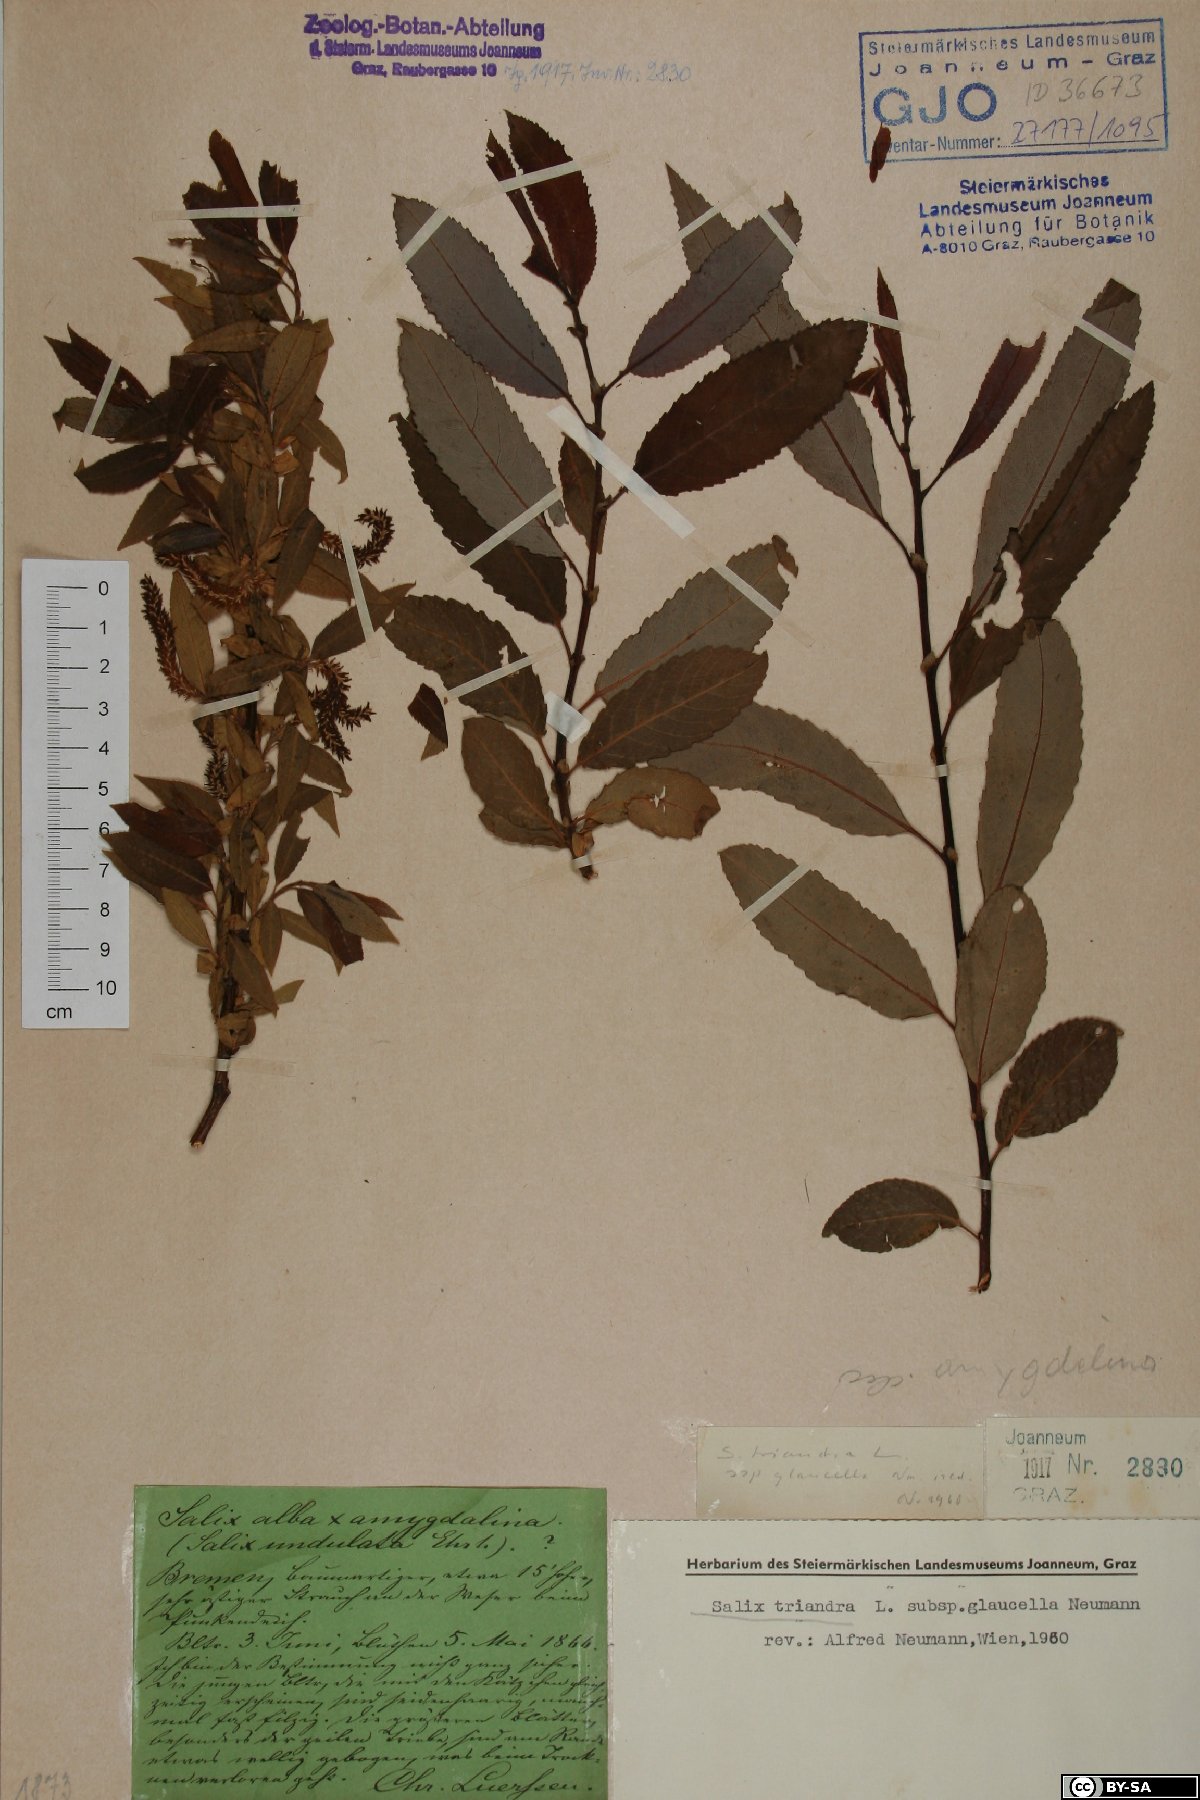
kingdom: Plantae
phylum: Tracheophyta
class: Magnoliopsida
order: Malpighiales
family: Salicaceae
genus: Salix
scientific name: Salix triandra
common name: Almond willow
